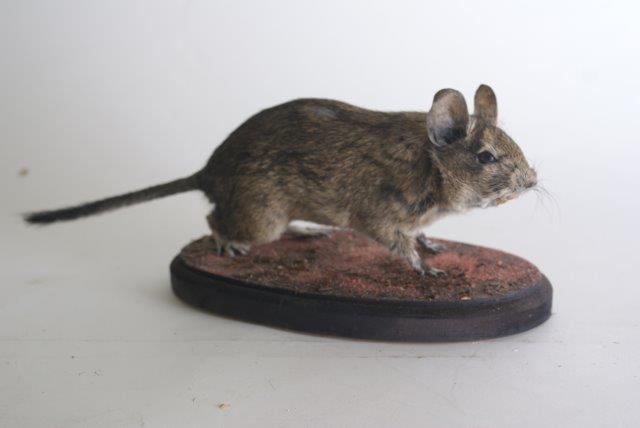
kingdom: Animalia
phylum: Chordata
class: Mammalia
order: Rodentia
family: Octodontidae
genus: Octodon
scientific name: Octodon degus
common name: Degu
